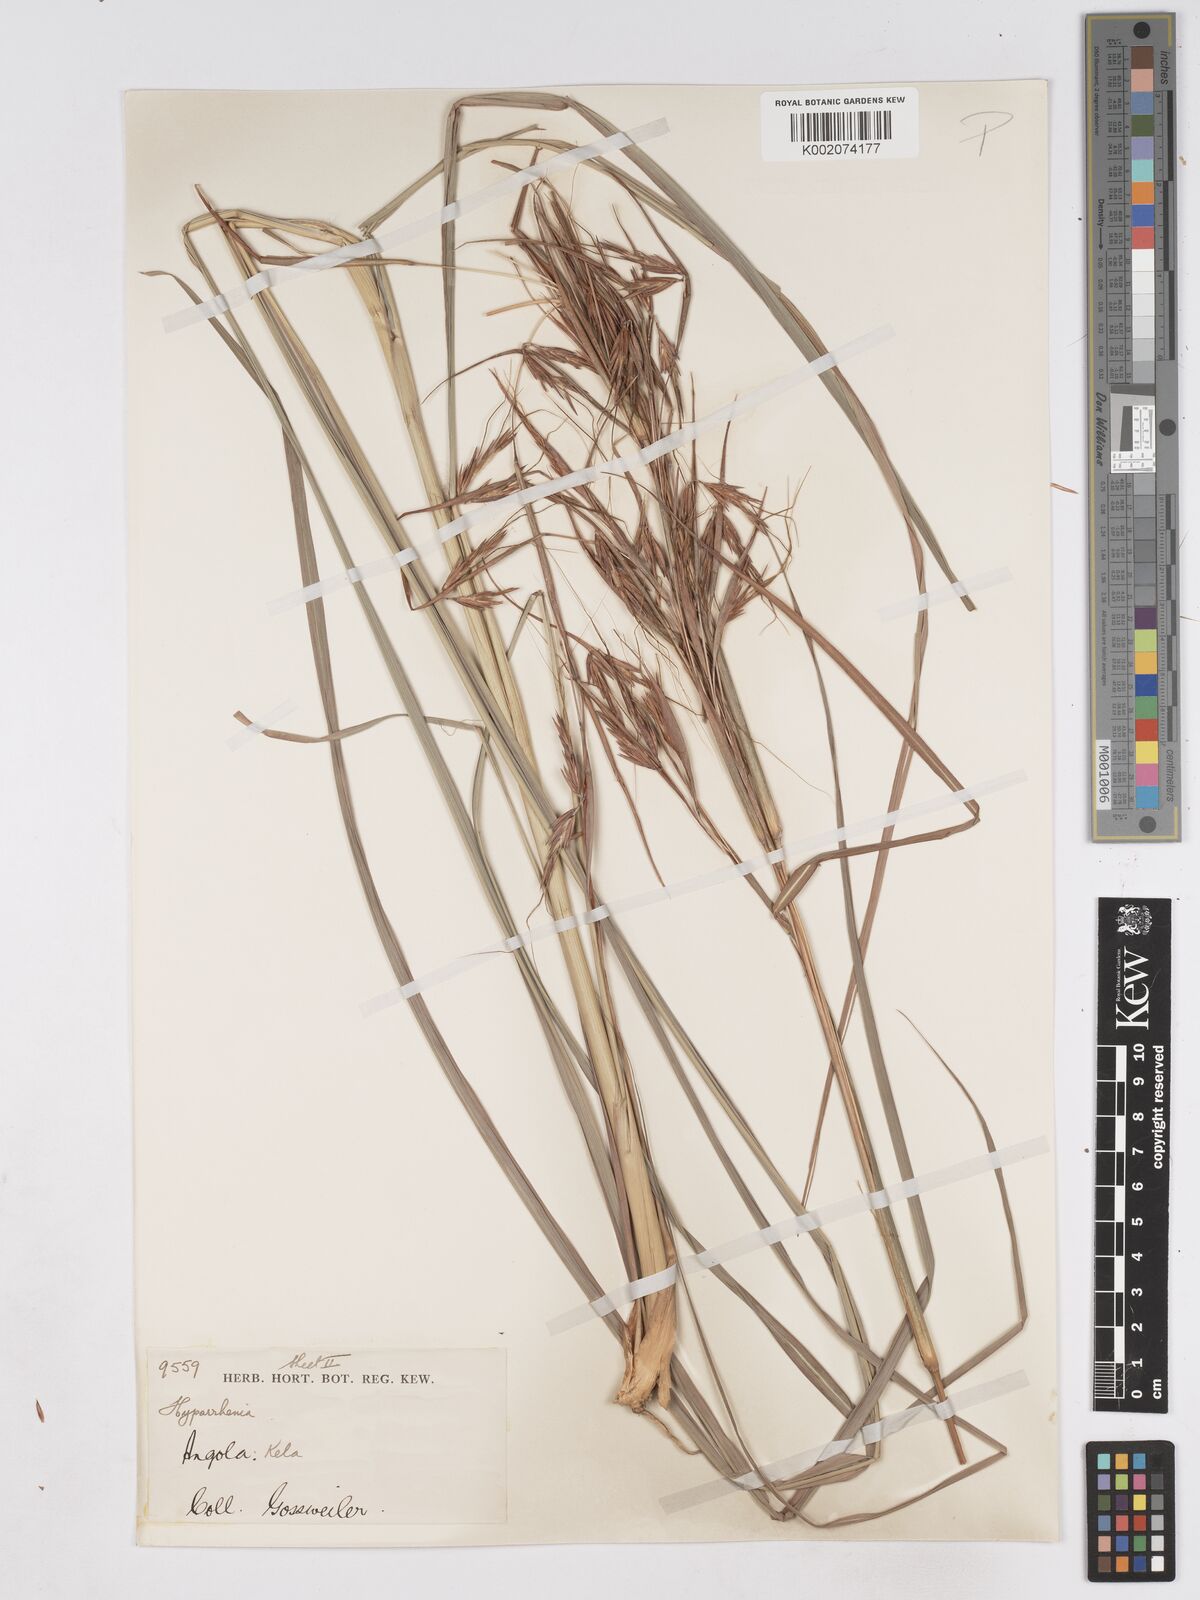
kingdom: Plantae
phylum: Tracheophyta
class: Liliopsida
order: Poales
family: Poaceae
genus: Hyparrhenia
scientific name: Hyparrhenia diplandra
